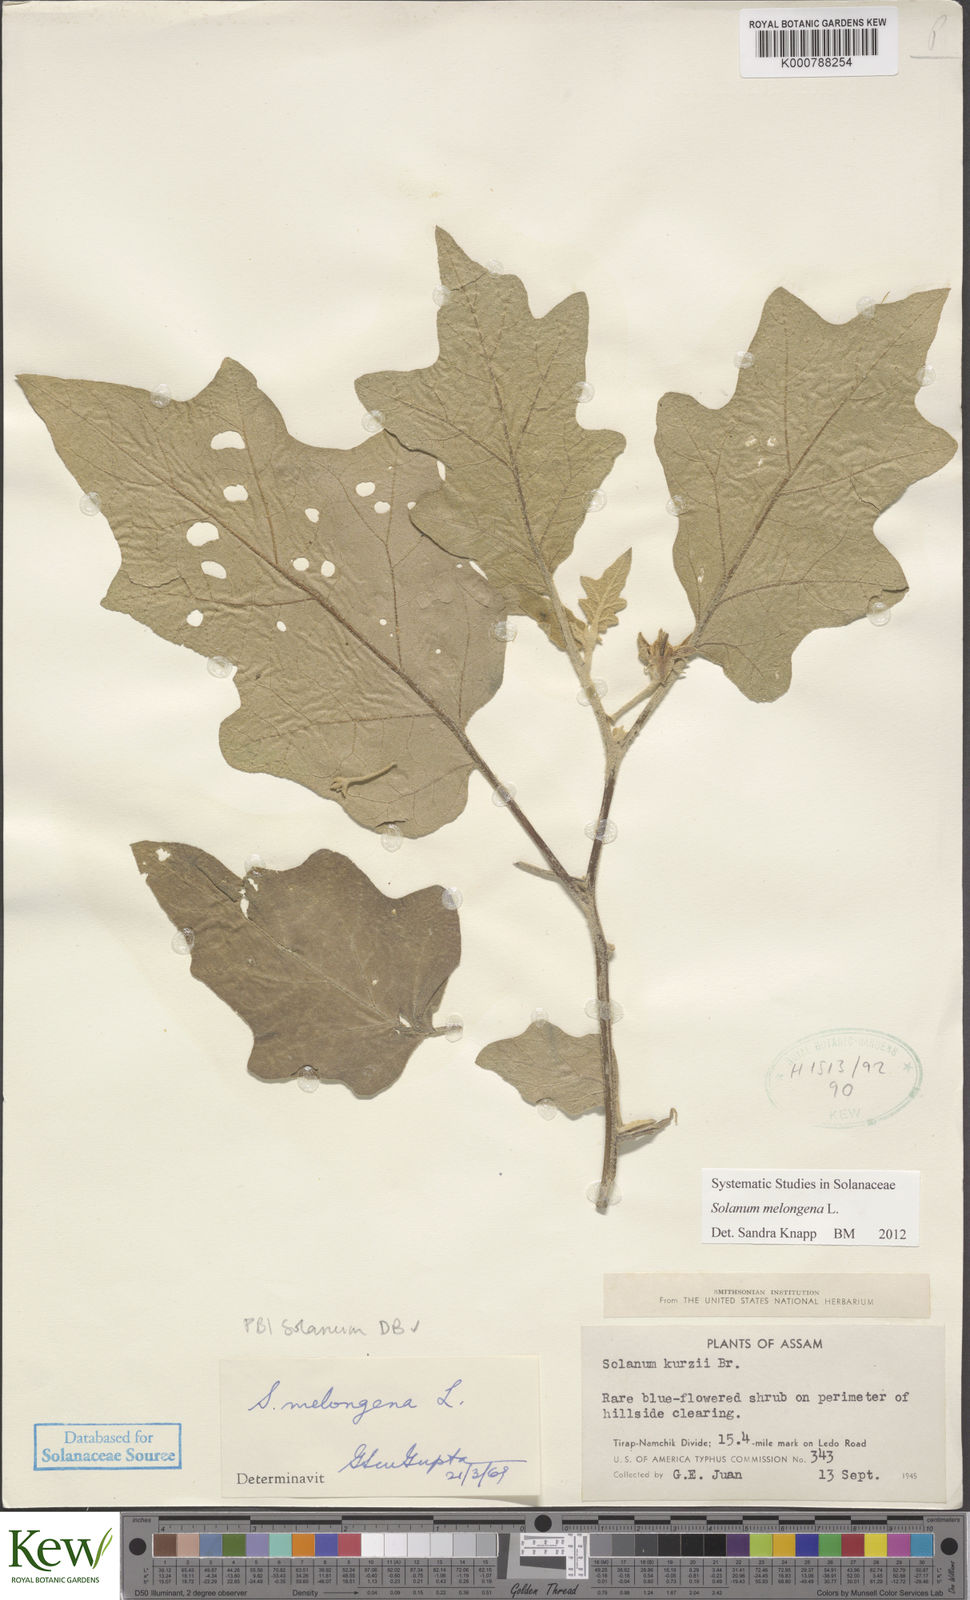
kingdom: Plantae
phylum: Tracheophyta
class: Magnoliopsida
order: Solanales
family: Solanaceae
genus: Solanum
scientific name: Solanum melongena
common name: Eggplant
